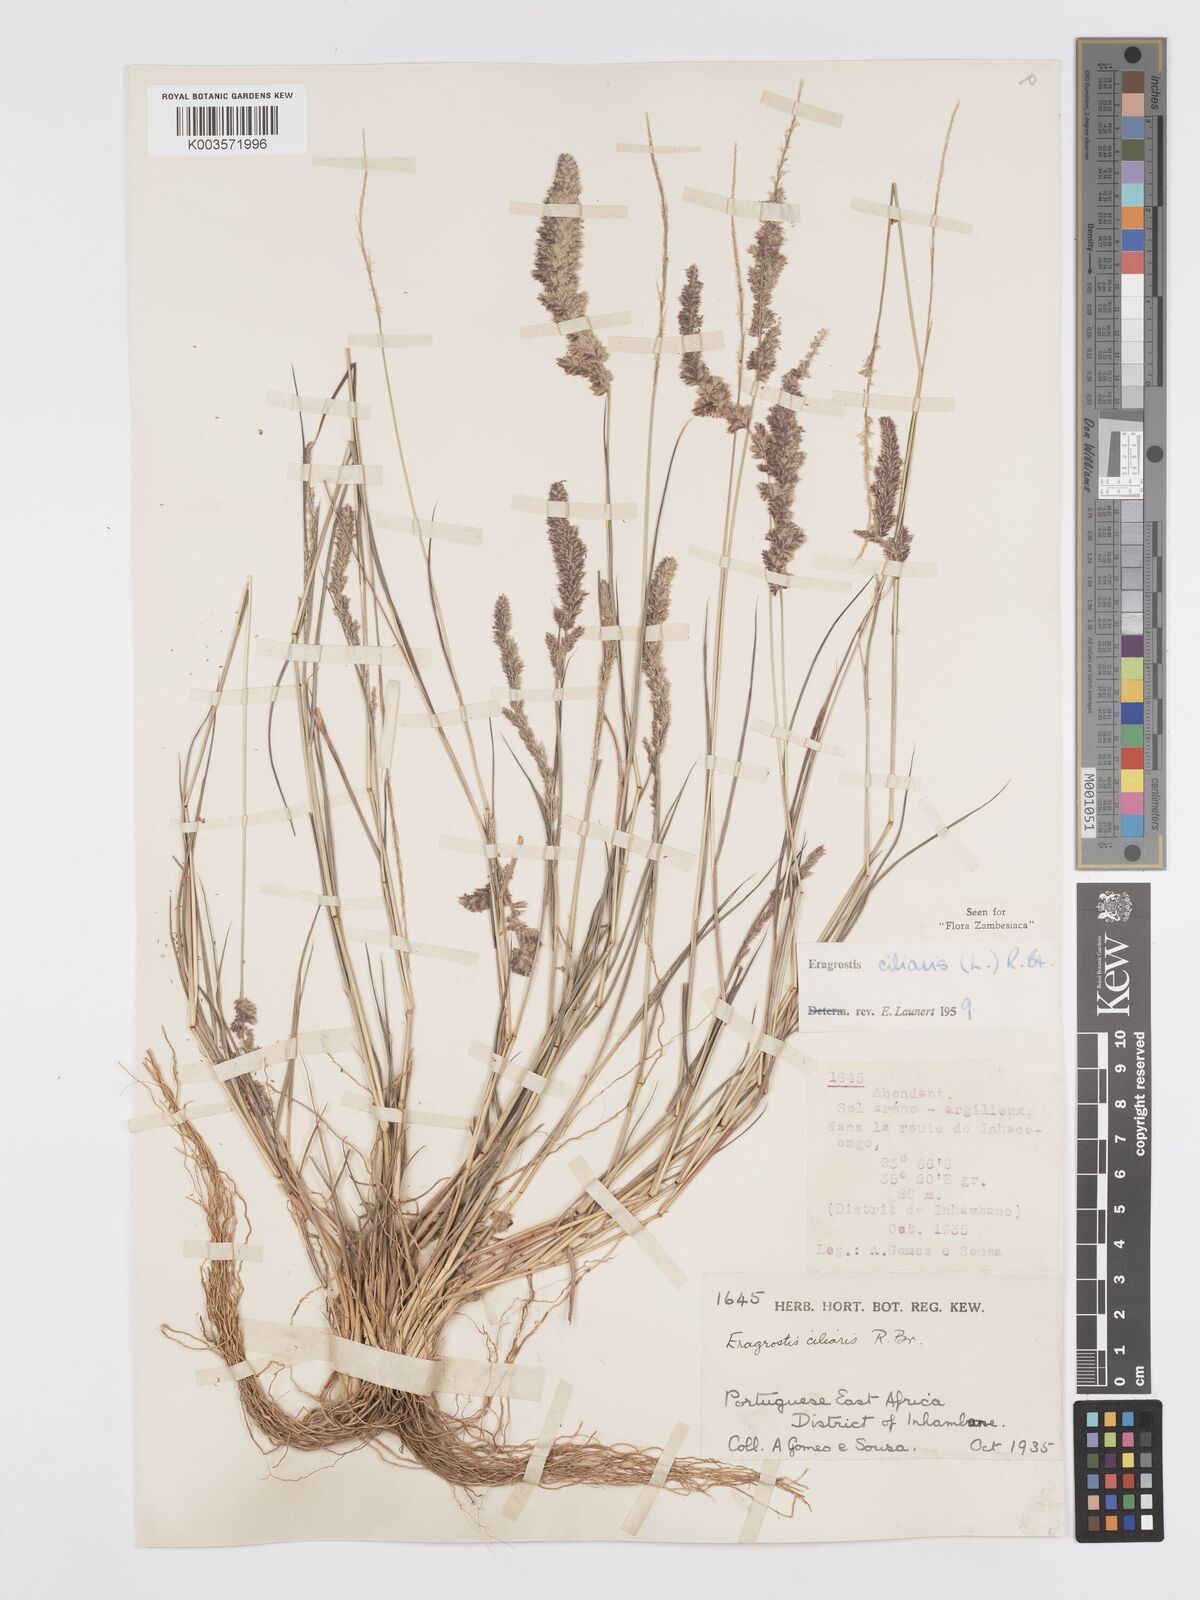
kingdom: Plantae
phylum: Tracheophyta
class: Liliopsida
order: Poales
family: Poaceae
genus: Eragrostis
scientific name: Eragrostis ciliaris
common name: Gophertail lovegrass
